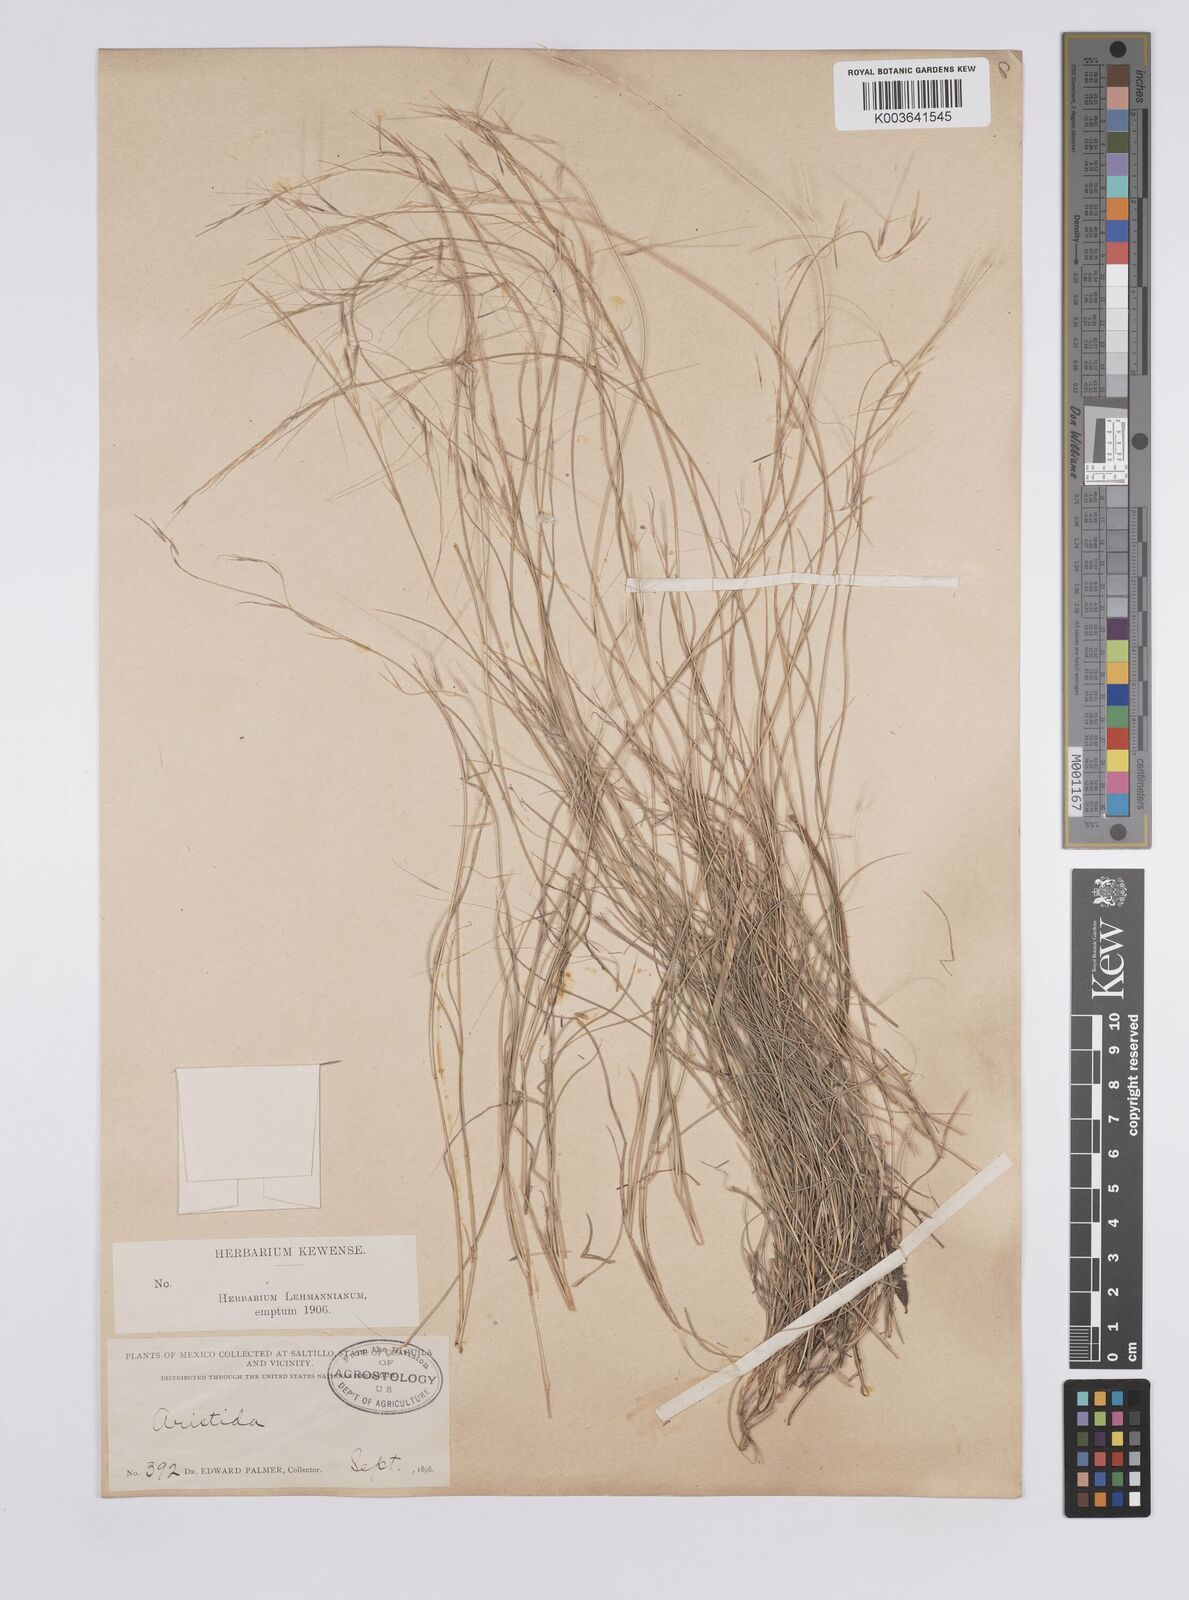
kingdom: Plantae
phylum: Tracheophyta
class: Liliopsida
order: Poales
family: Poaceae
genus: Aristida
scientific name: Aristida
